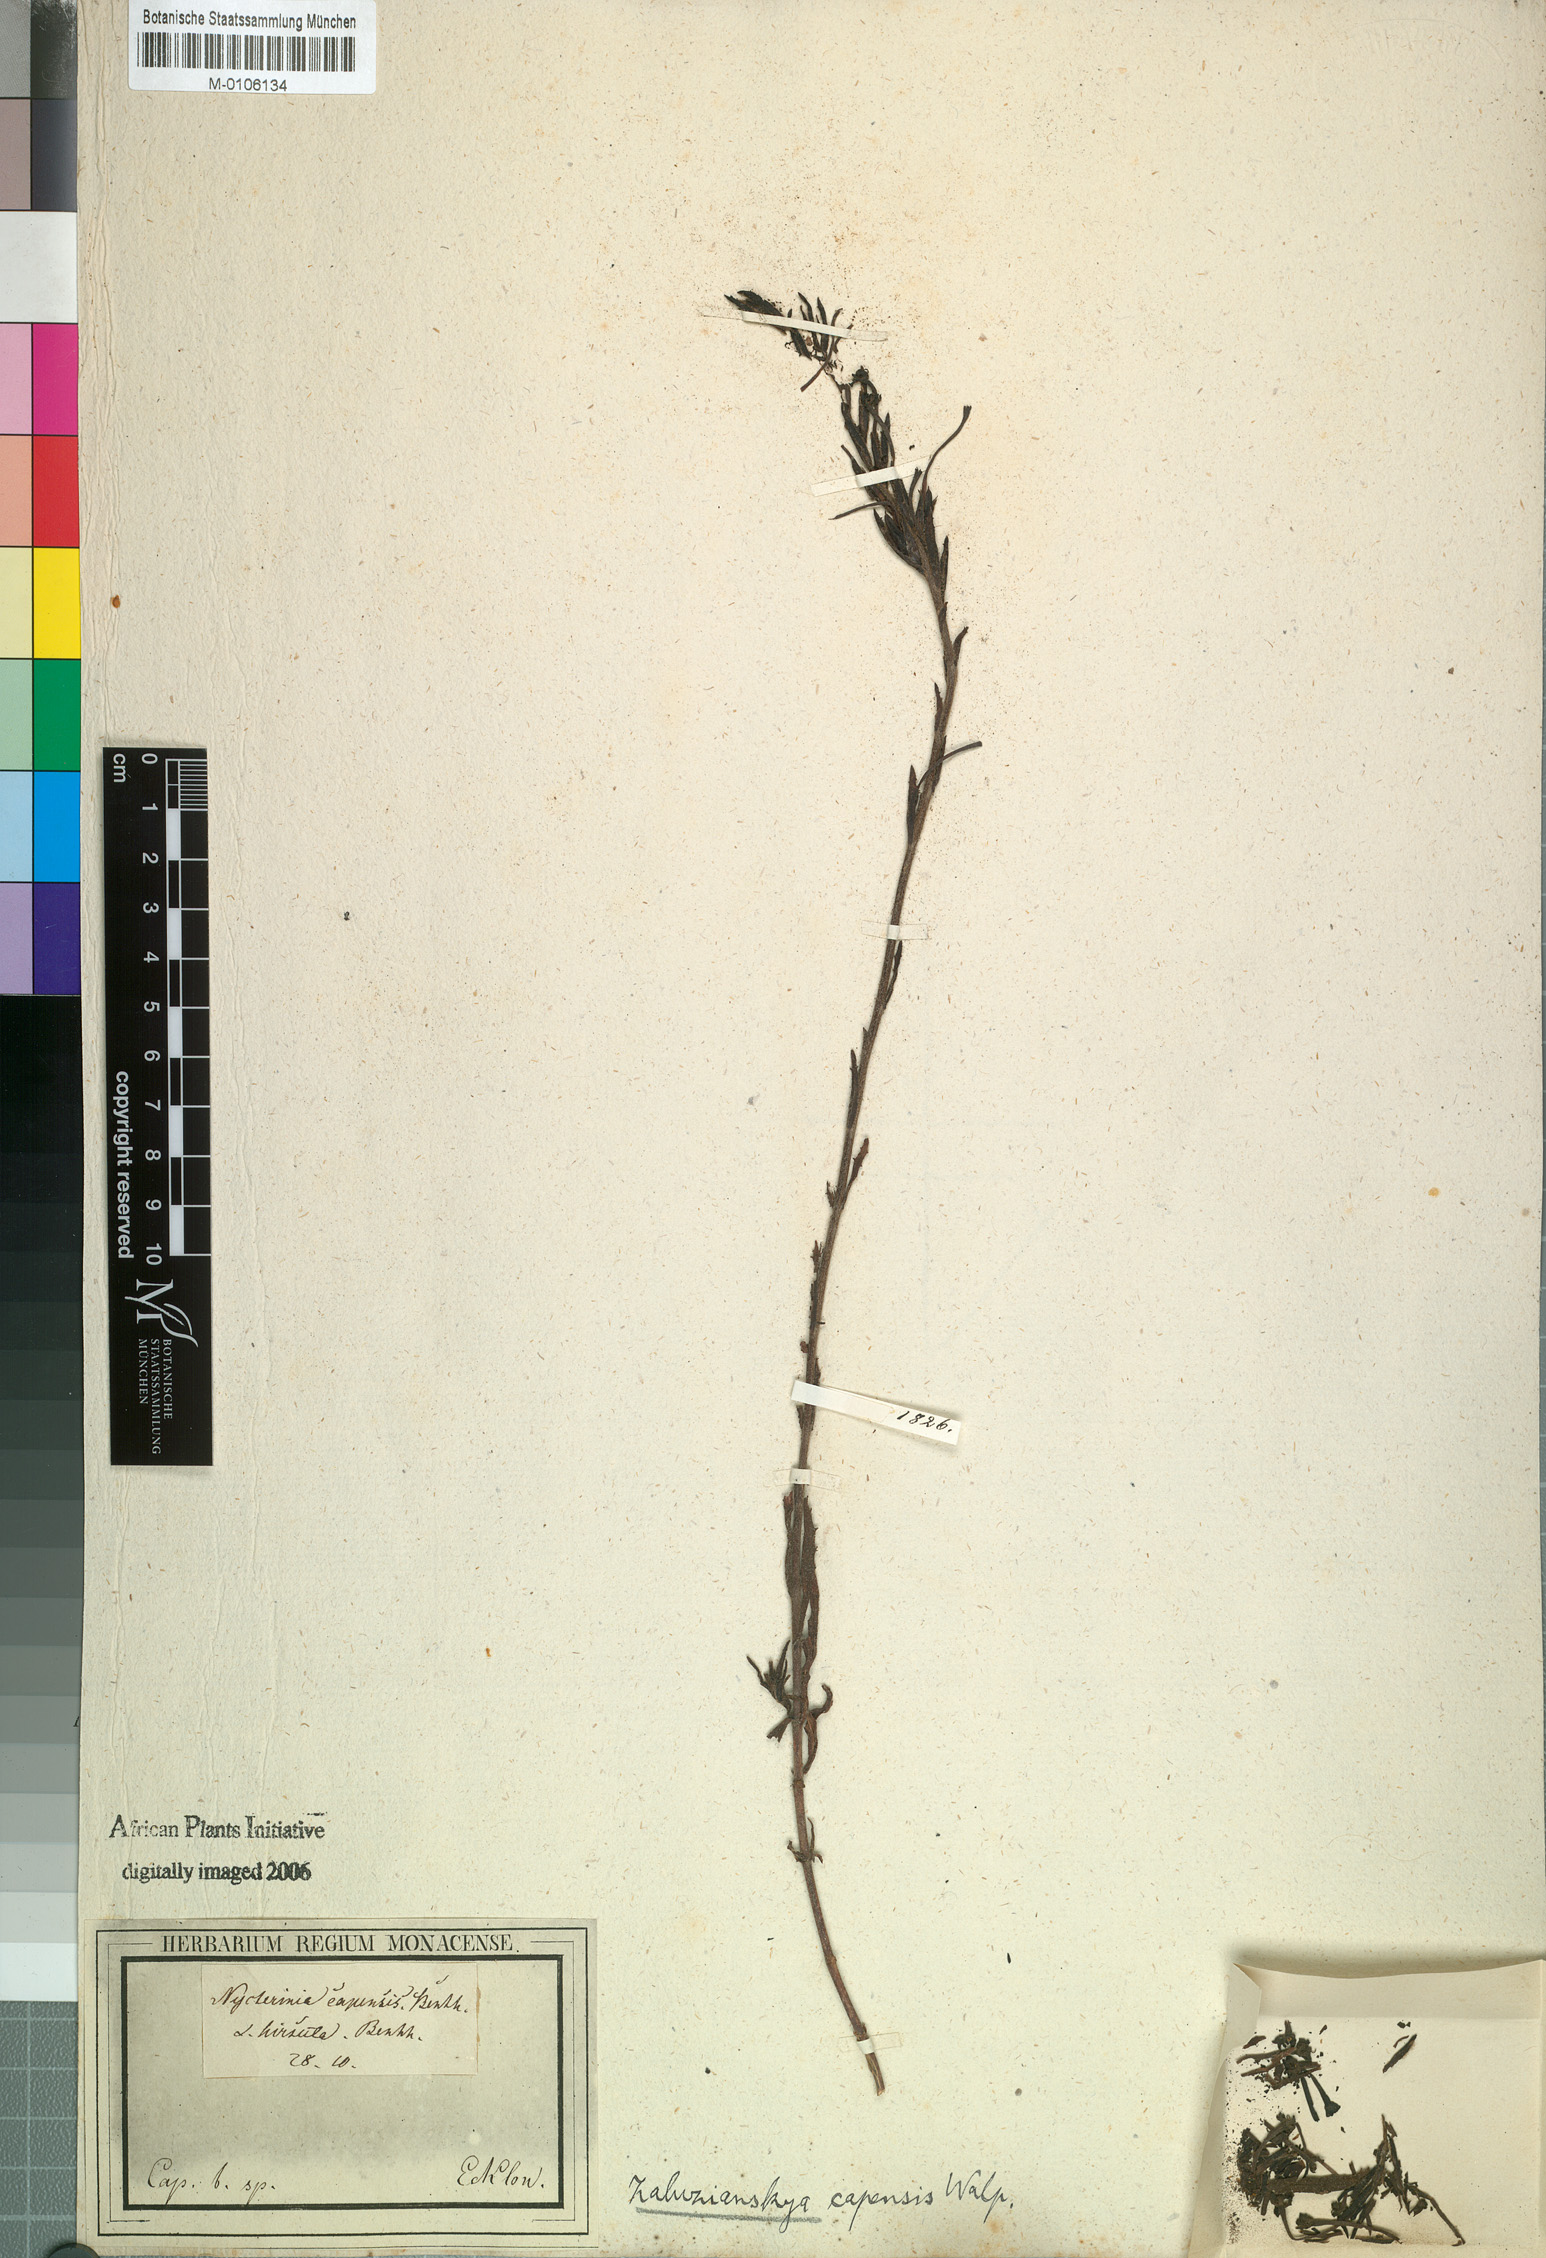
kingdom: Plantae
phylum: Tracheophyta
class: Magnoliopsida
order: Lamiales
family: Scrophulariaceae
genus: Zaluzianskya
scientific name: Zaluzianskya capensis
